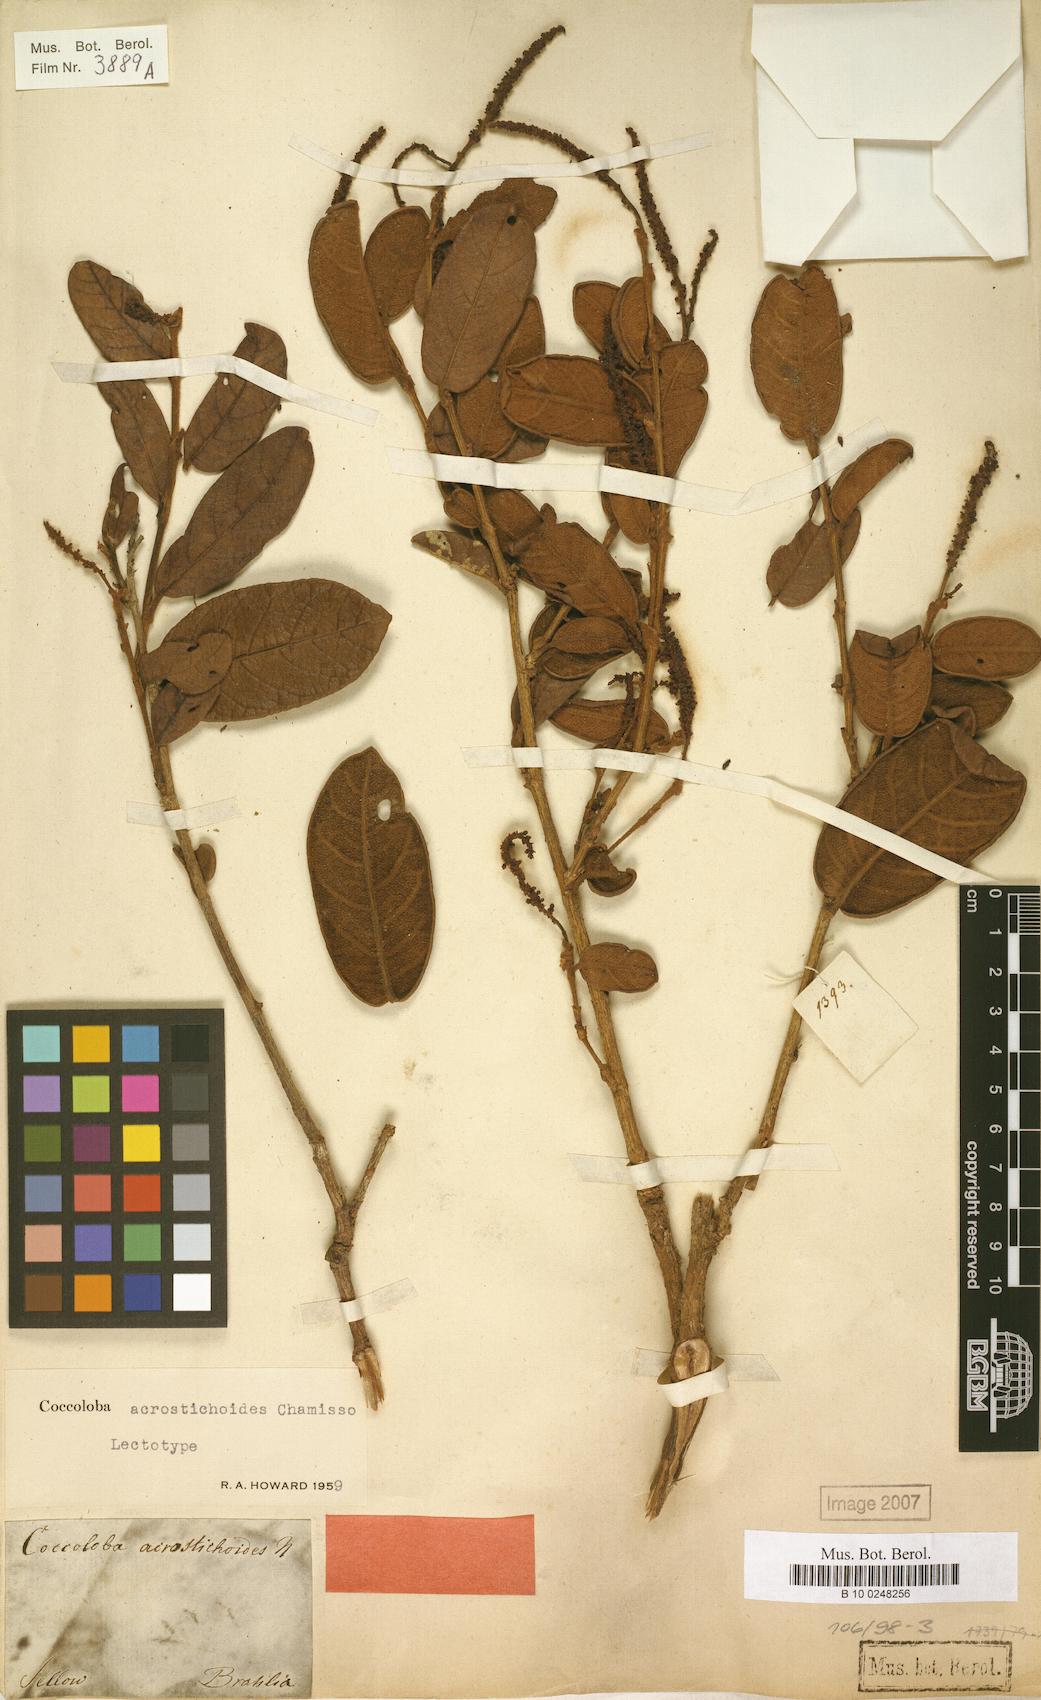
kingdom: Plantae
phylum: Tracheophyta
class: Magnoliopsida
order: Caryophyllales
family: Polygonaceae
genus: Coccoloba
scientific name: Coccoloba acrostichoides
